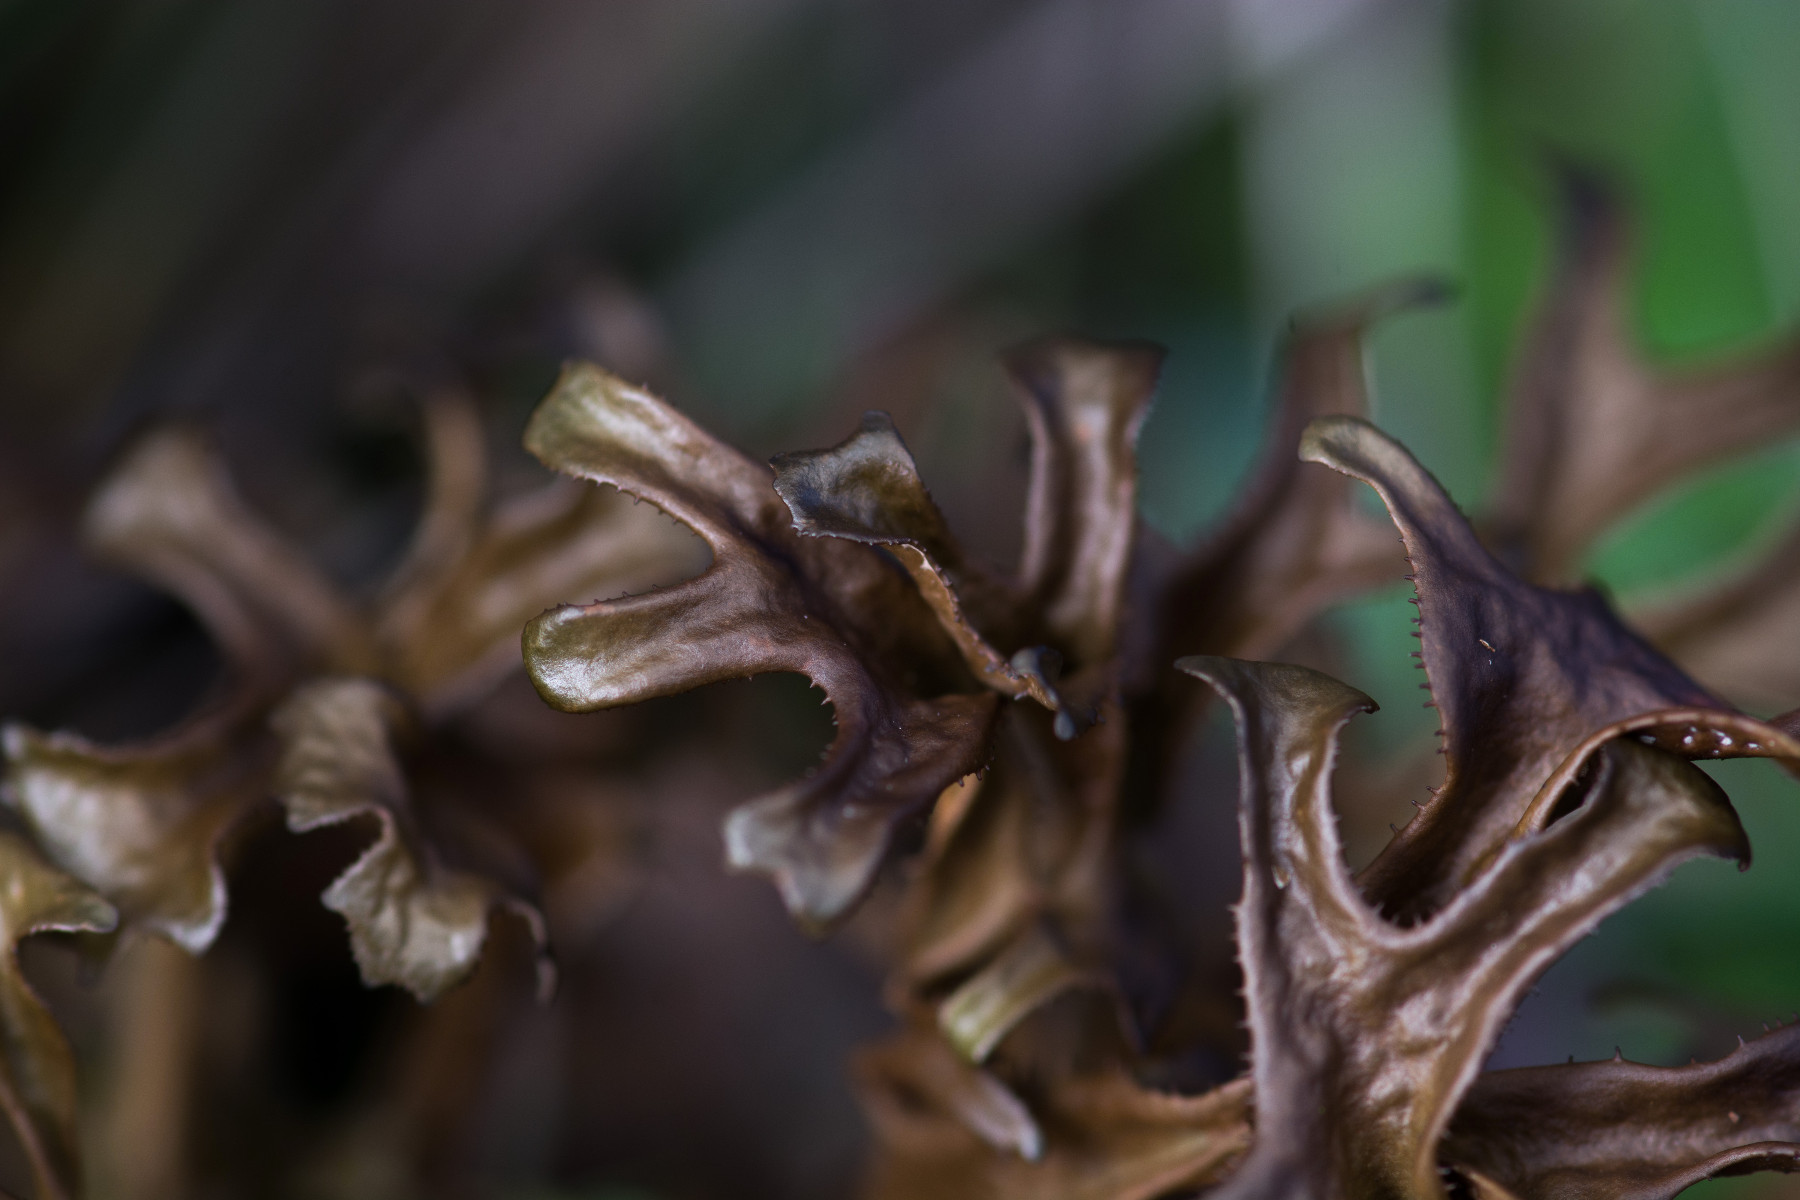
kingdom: Fungi
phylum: Ascomycota
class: Lecanoromycetes
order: Lecanorales
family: Parmeliaceae
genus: Cetraria
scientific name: Cetraria islandica
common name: islandsk kruslav
